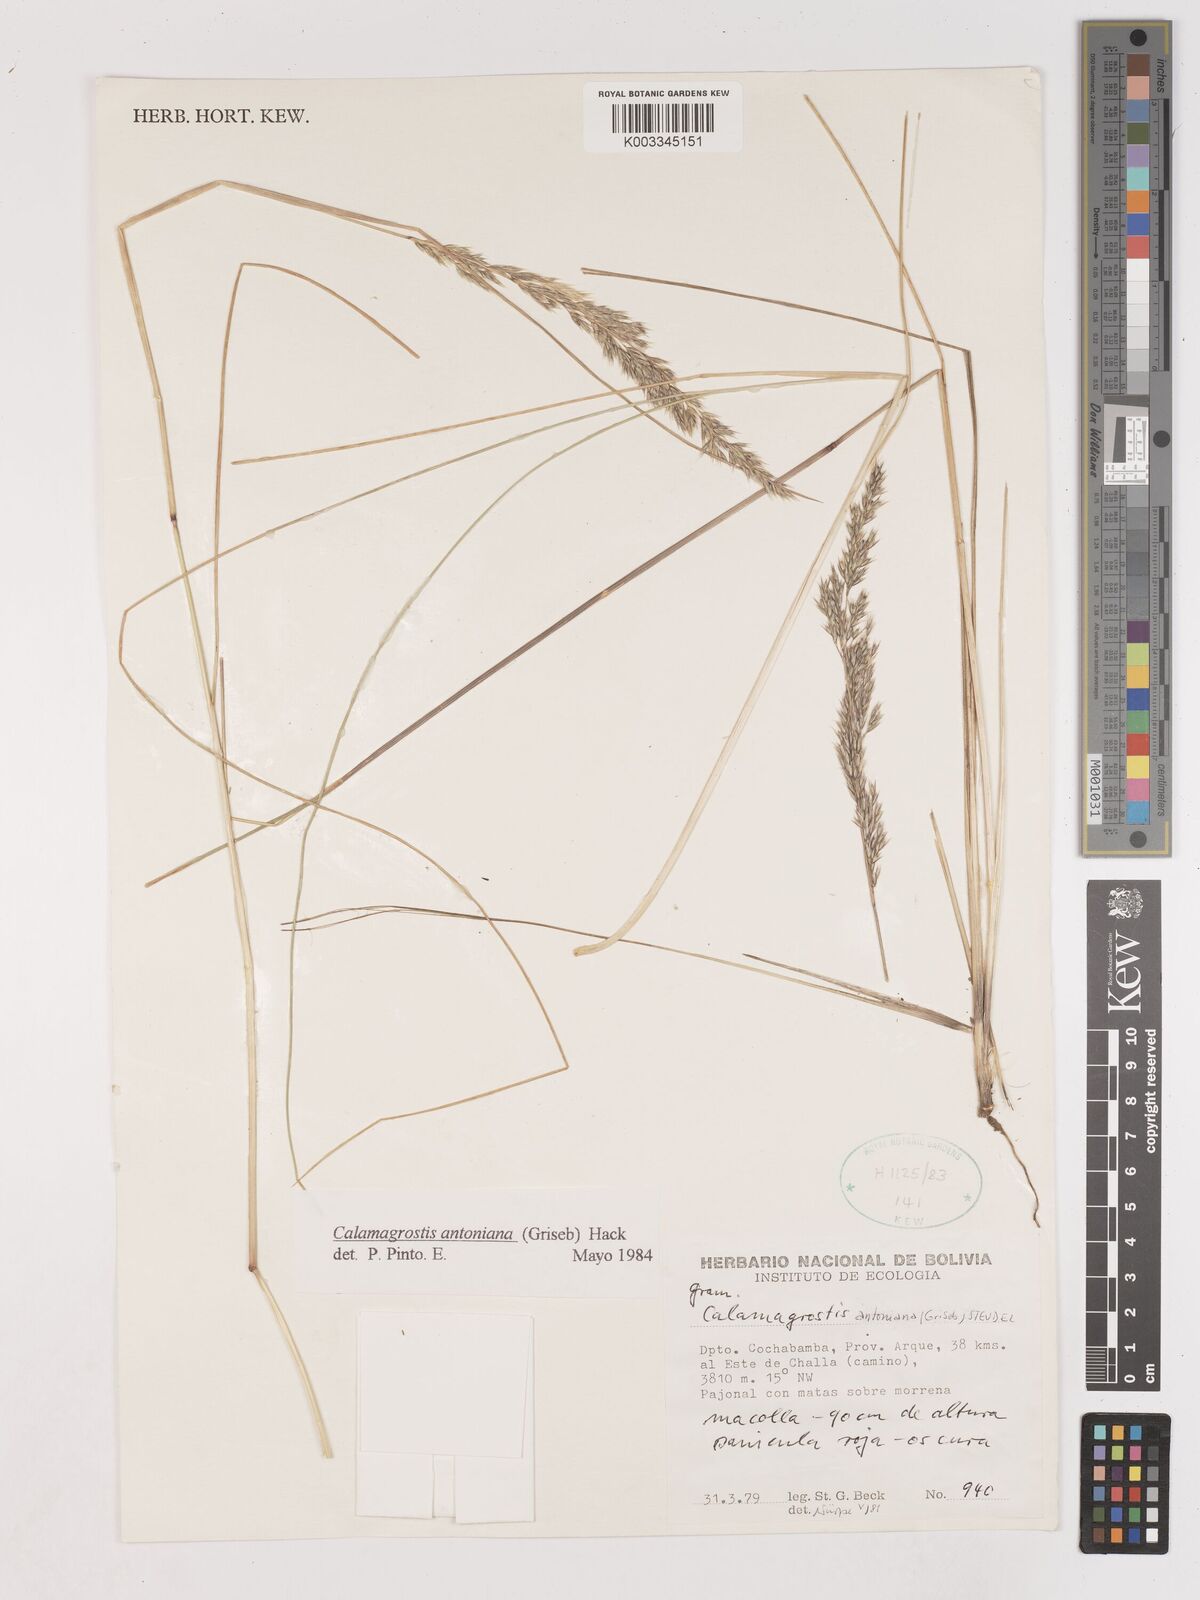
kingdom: Plantae
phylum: Tracheophyta
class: Liliopsida
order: Poales
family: Poaceae
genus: Calamagrostis
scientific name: Calamagrostis
